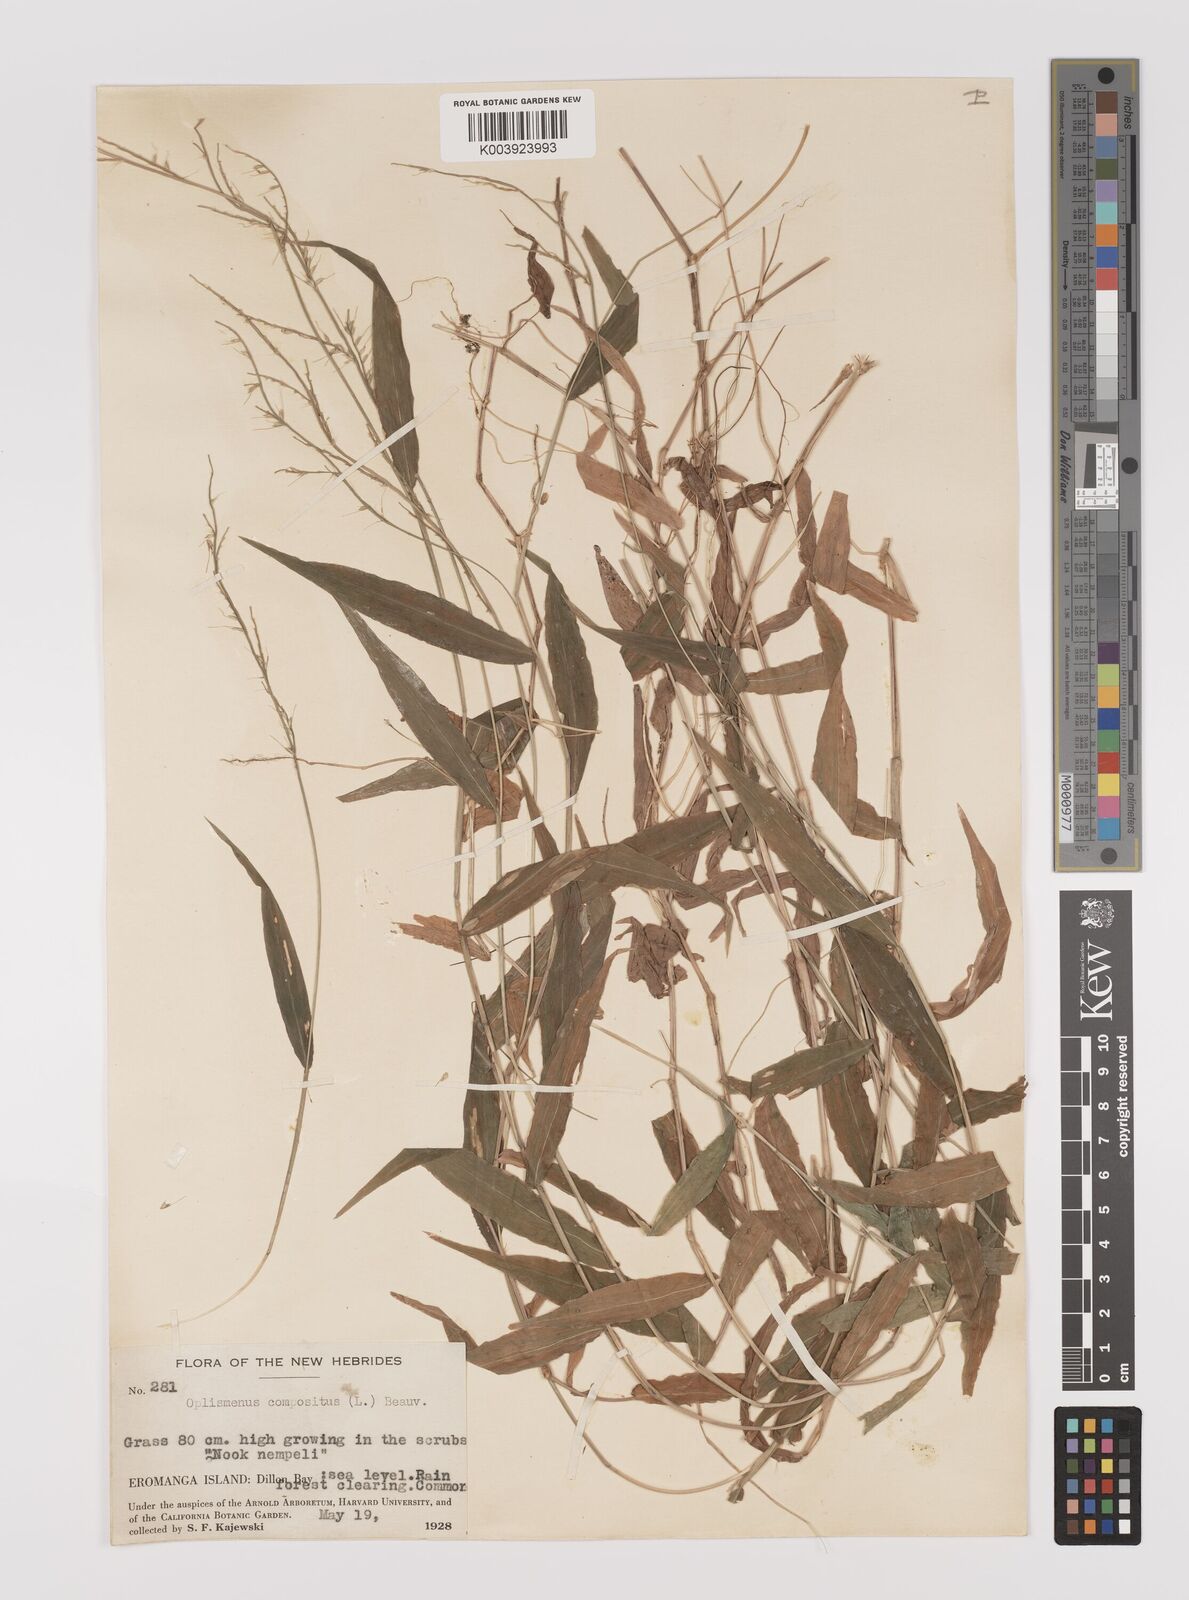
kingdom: Plantae
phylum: Tracheophyta
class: Liliopsida
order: Poales
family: Poaceae
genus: Oplismenus
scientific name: Oplismenus compositus
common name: Running mountain grass
